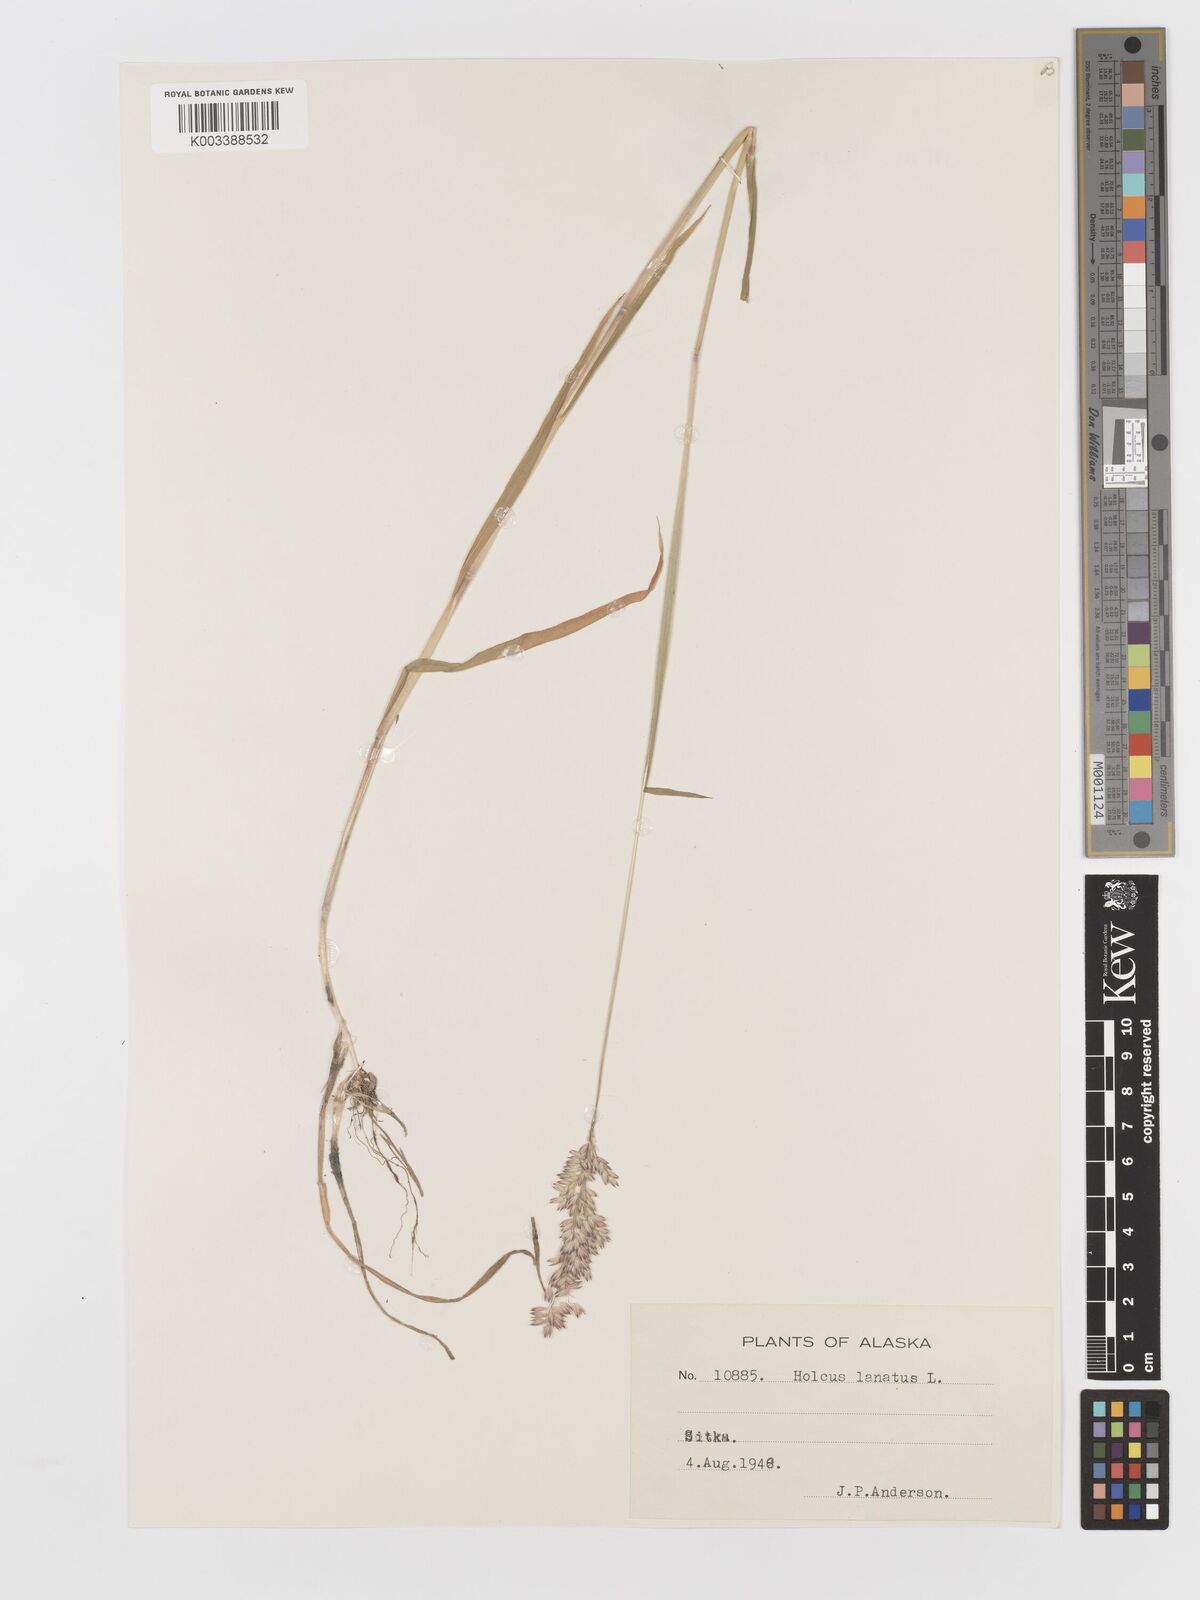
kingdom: Plantae
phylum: Tracheophyta
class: Liliopsida
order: Poales
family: Poaceae
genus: Holcus
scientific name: Holcus lanatus
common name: Yorkshire-fog
